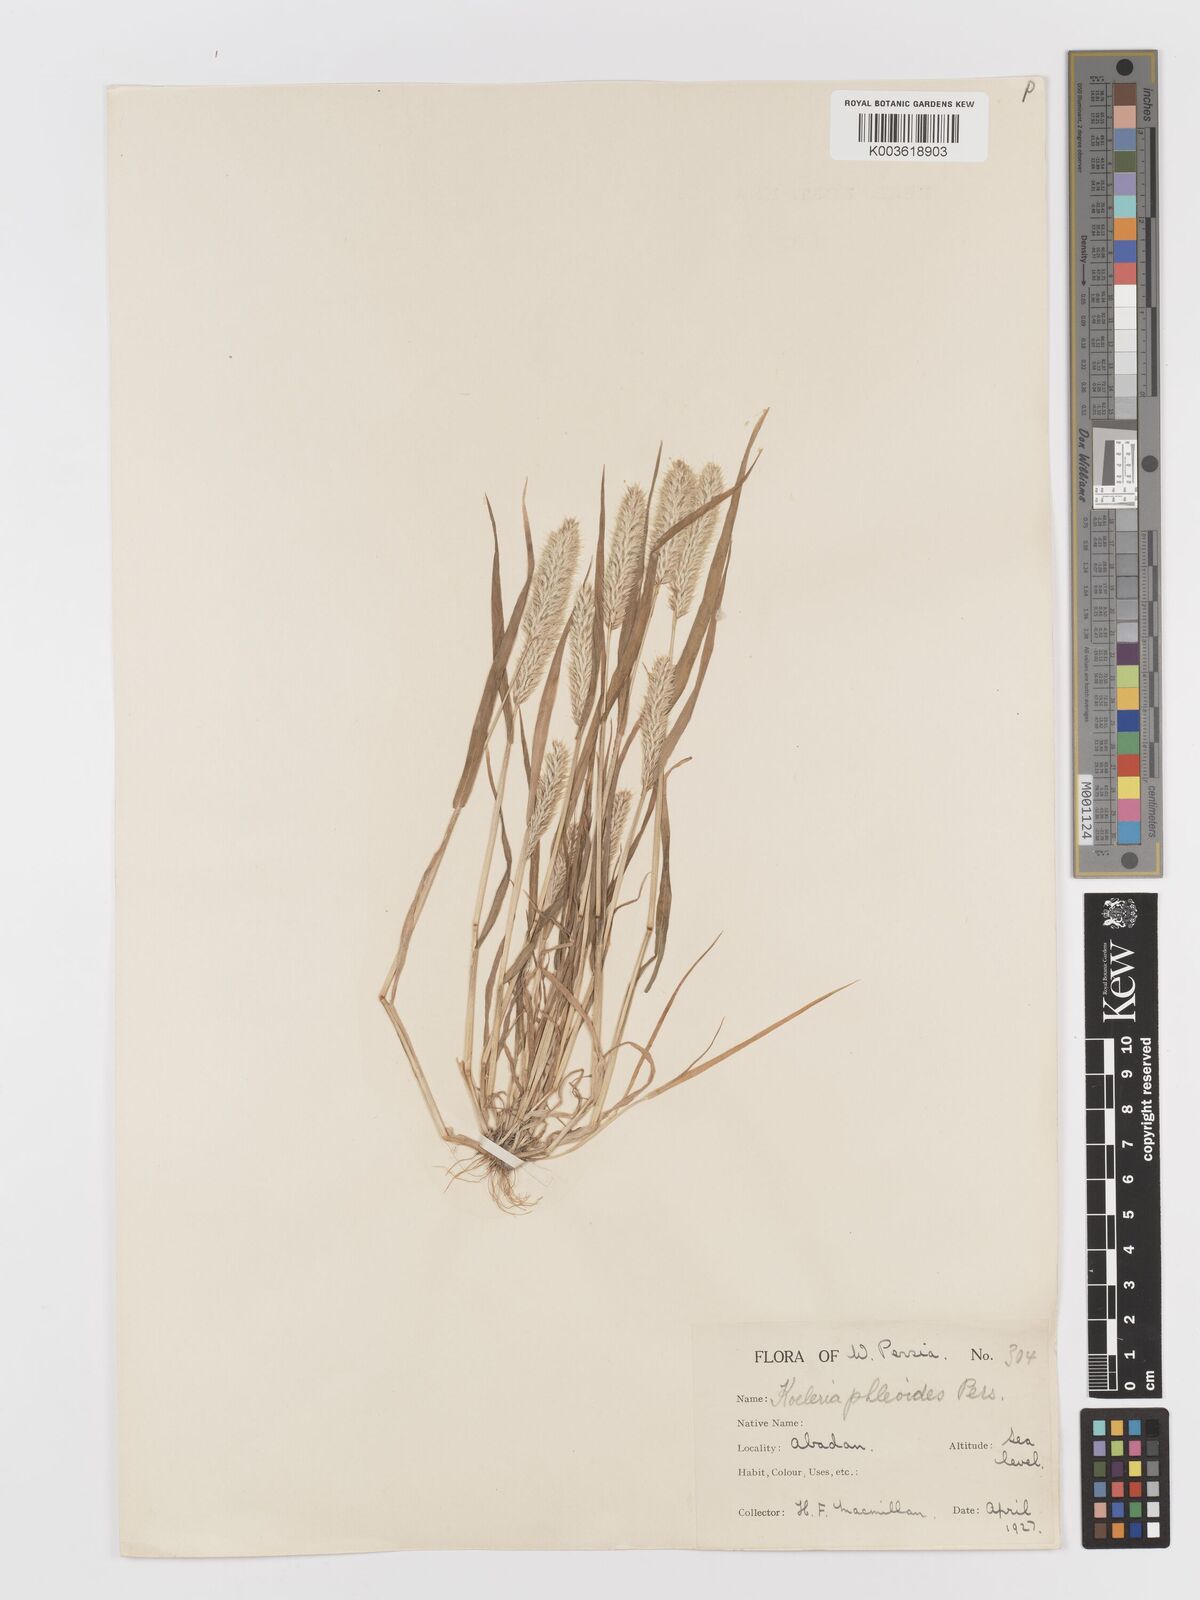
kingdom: Plantae
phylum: Tracheophyta
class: Liliopsida
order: Poales
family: Poaceae
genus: Rostraria
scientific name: Rostraria cristata
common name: Mediterranean hair-grass
